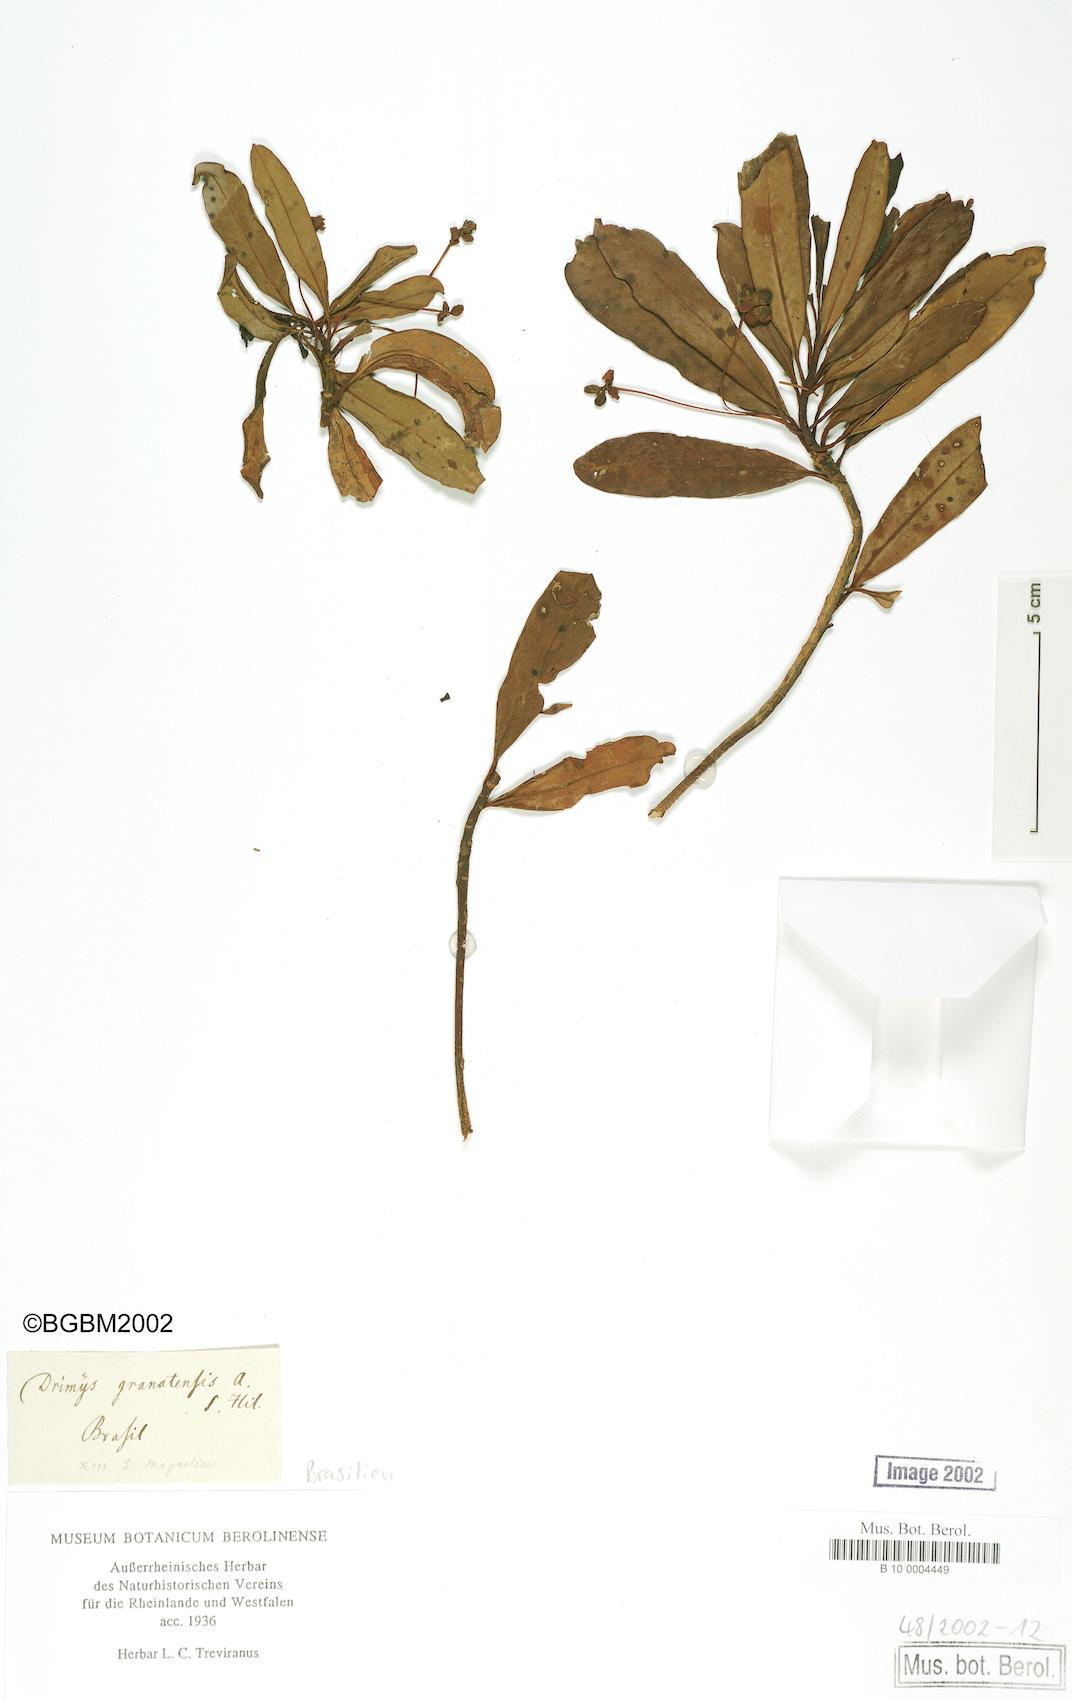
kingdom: Plantae
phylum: Tracheophyta
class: Magnoliopsida
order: Canellales
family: Winteraceae
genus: Drimys
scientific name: Drimys brasiliensis
